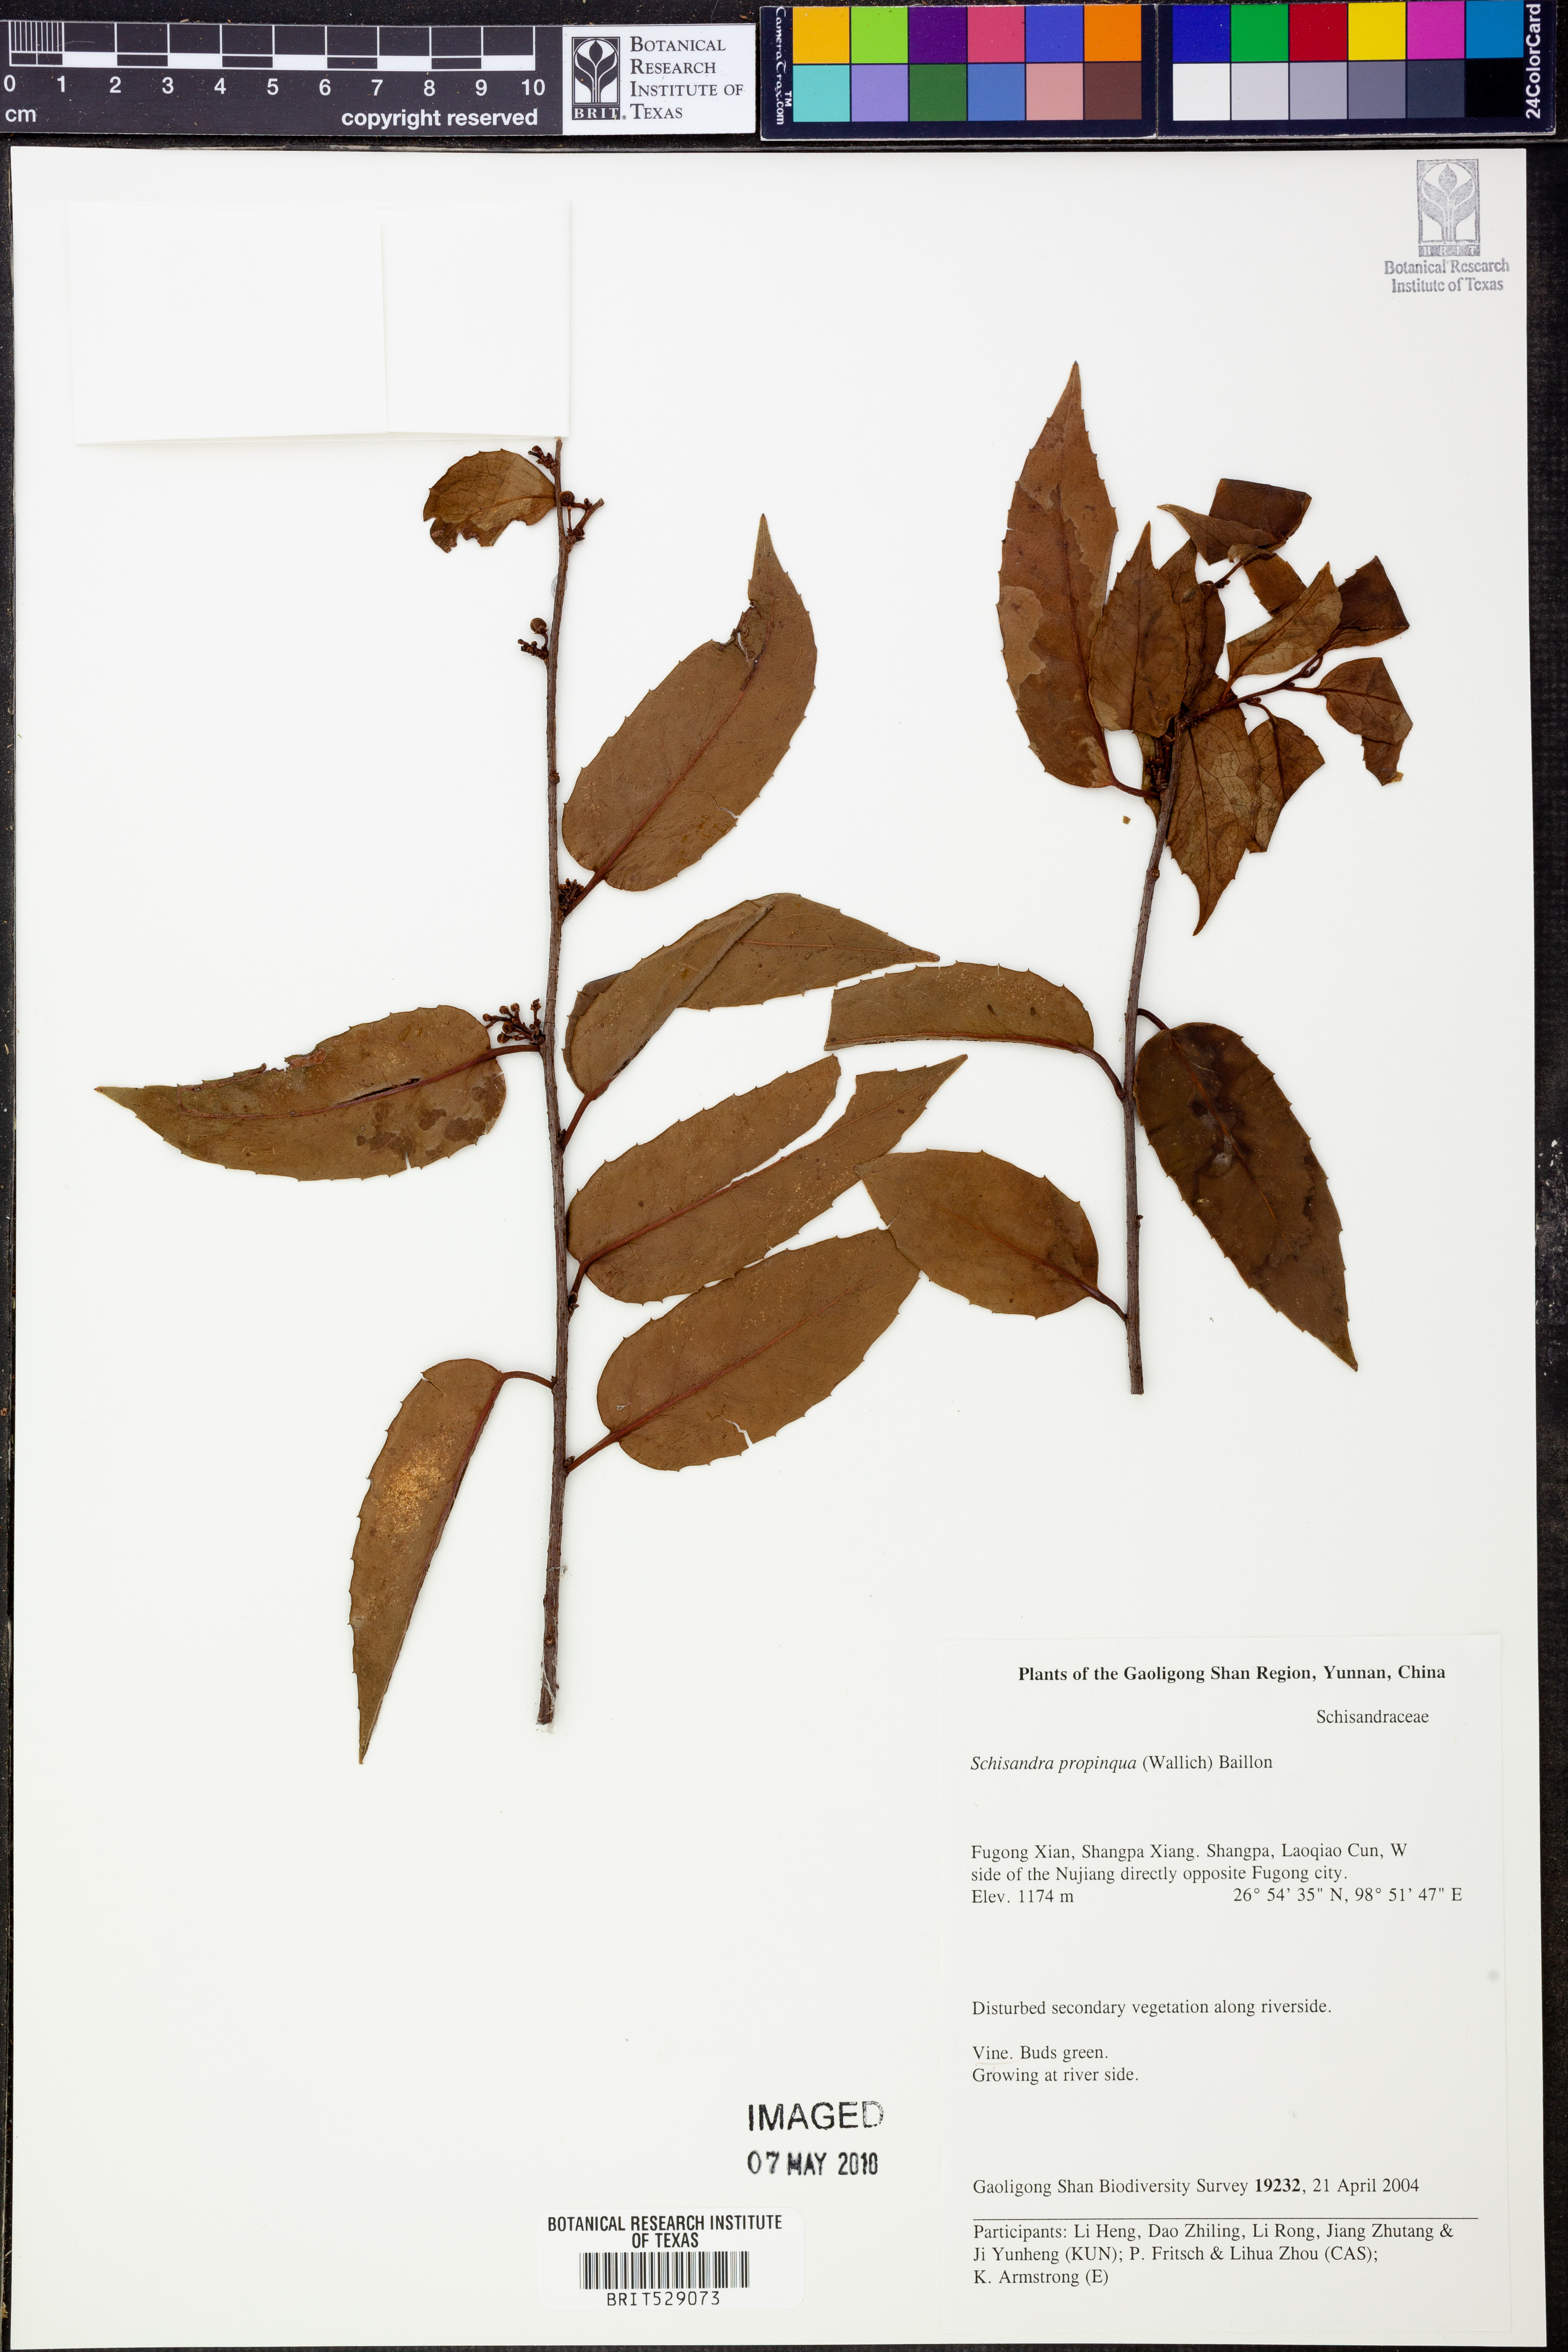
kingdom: Plantae
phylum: Tracheophyta
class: Magnoliopsida
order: Austrobaileyales
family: Schisandraceae
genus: Schisandra
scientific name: Schisandra propinqua
